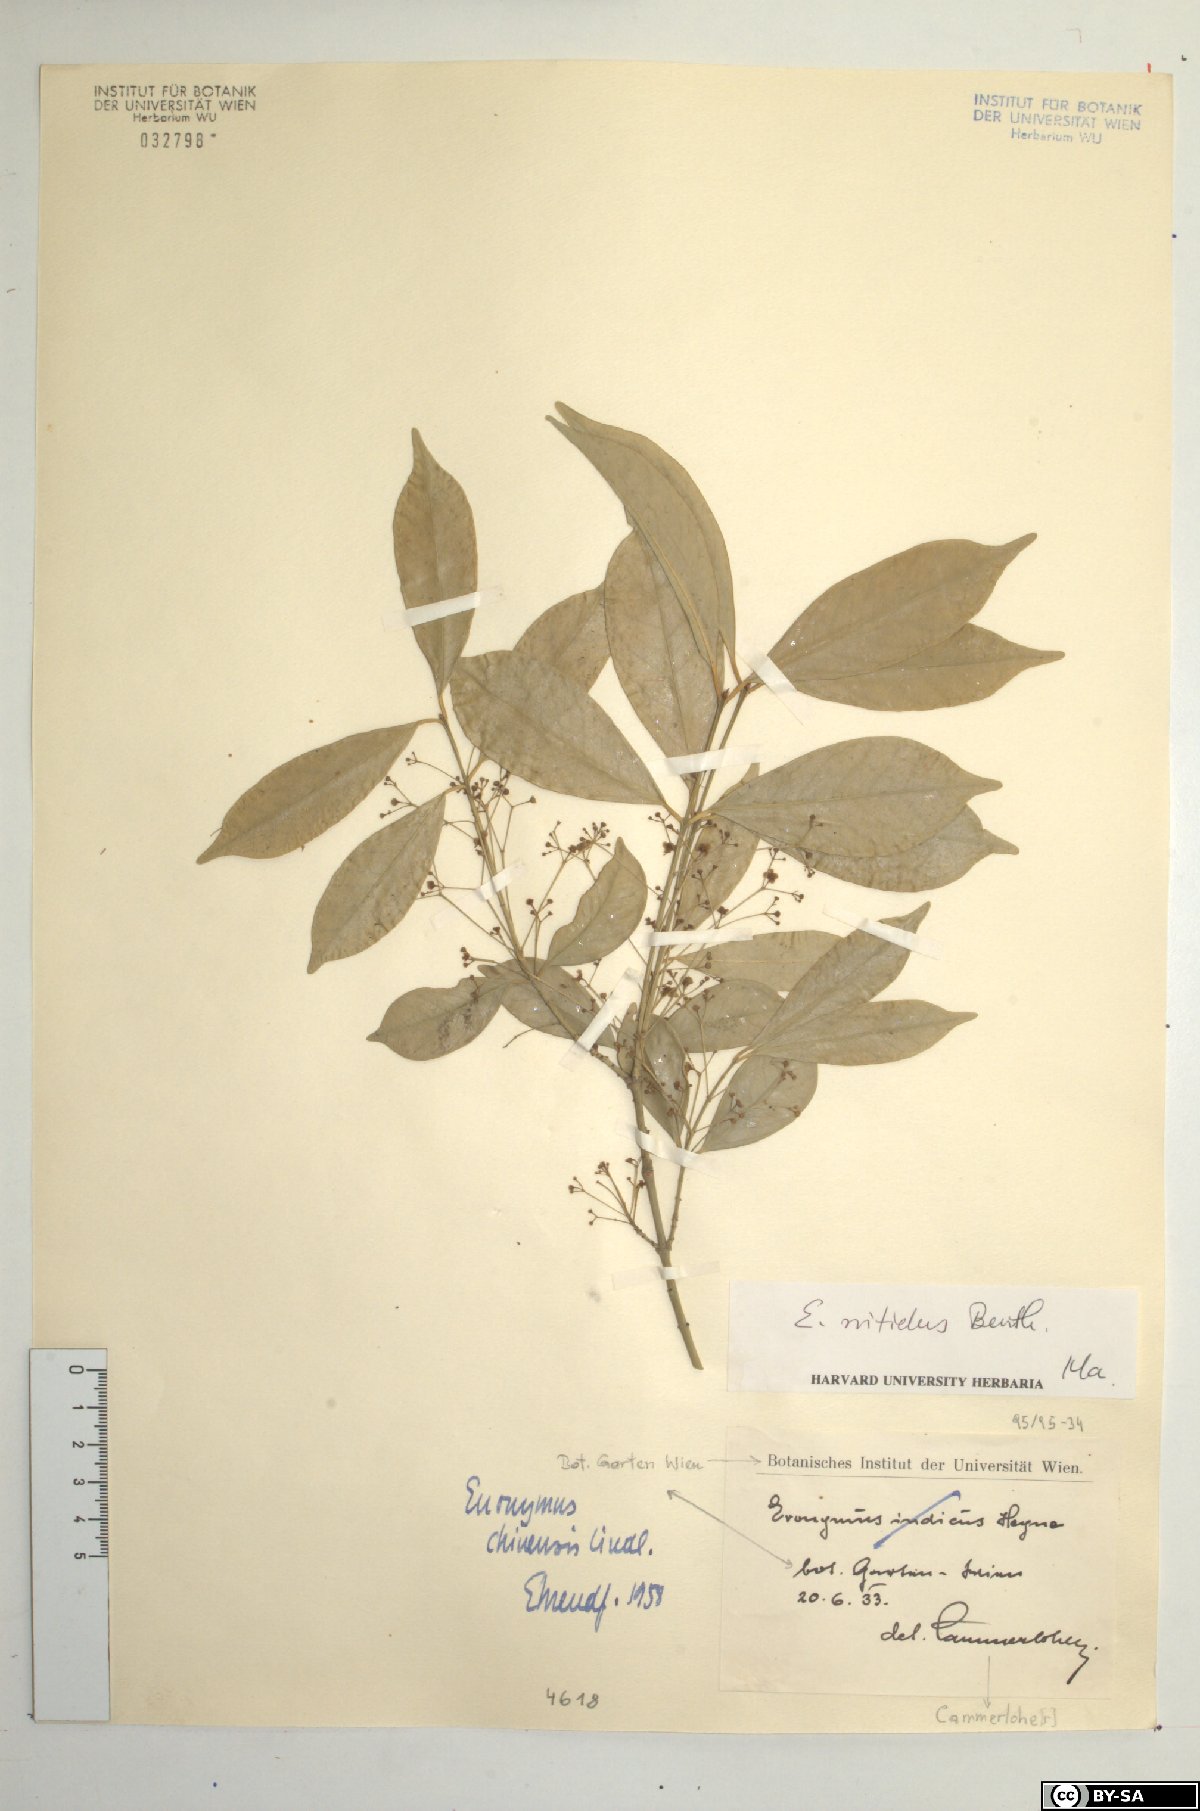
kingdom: Plantae
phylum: Tracheophyta
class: Magnoliopsida
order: Celastrales
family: Celastraceae
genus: Euonymus
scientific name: Euonymus nitidus
